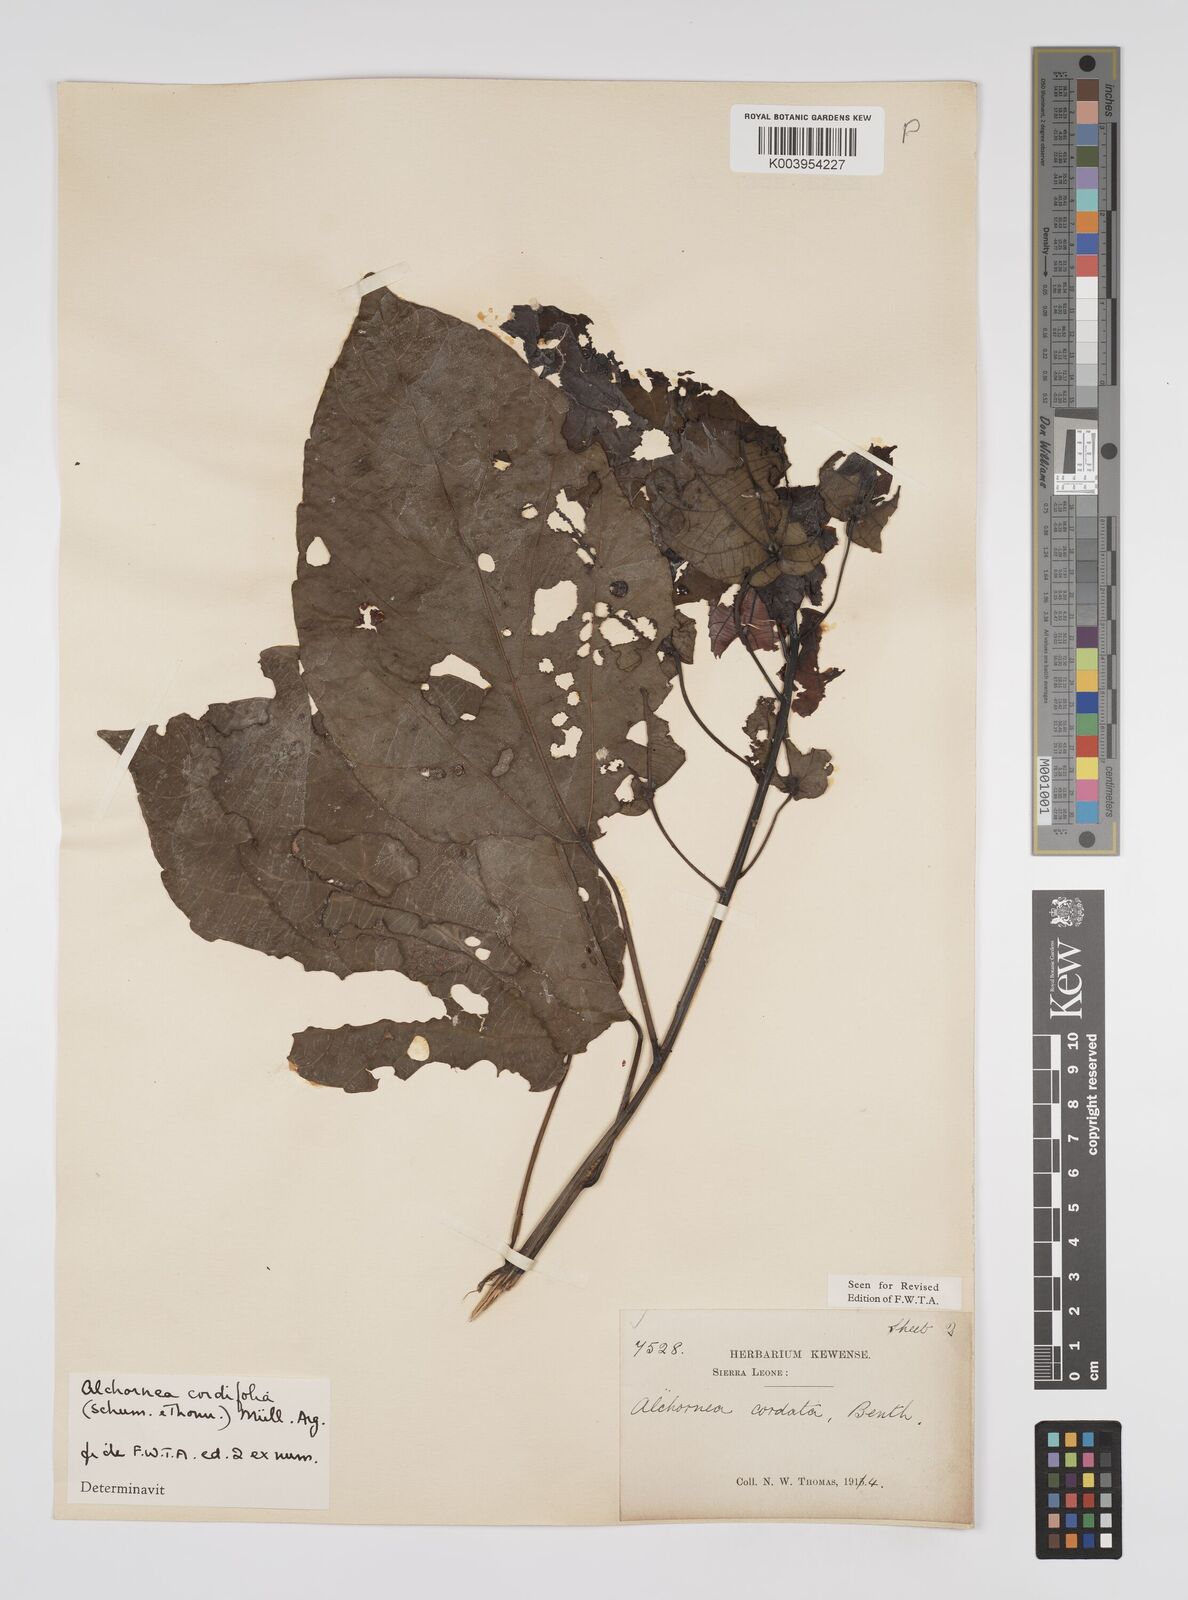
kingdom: Plantae
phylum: Tracheophyta
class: Magnoliopsida
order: Malpighiales
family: Euphorbiaceae
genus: Alchornea
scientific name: Alchornea cordifolia
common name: Christmasbush
